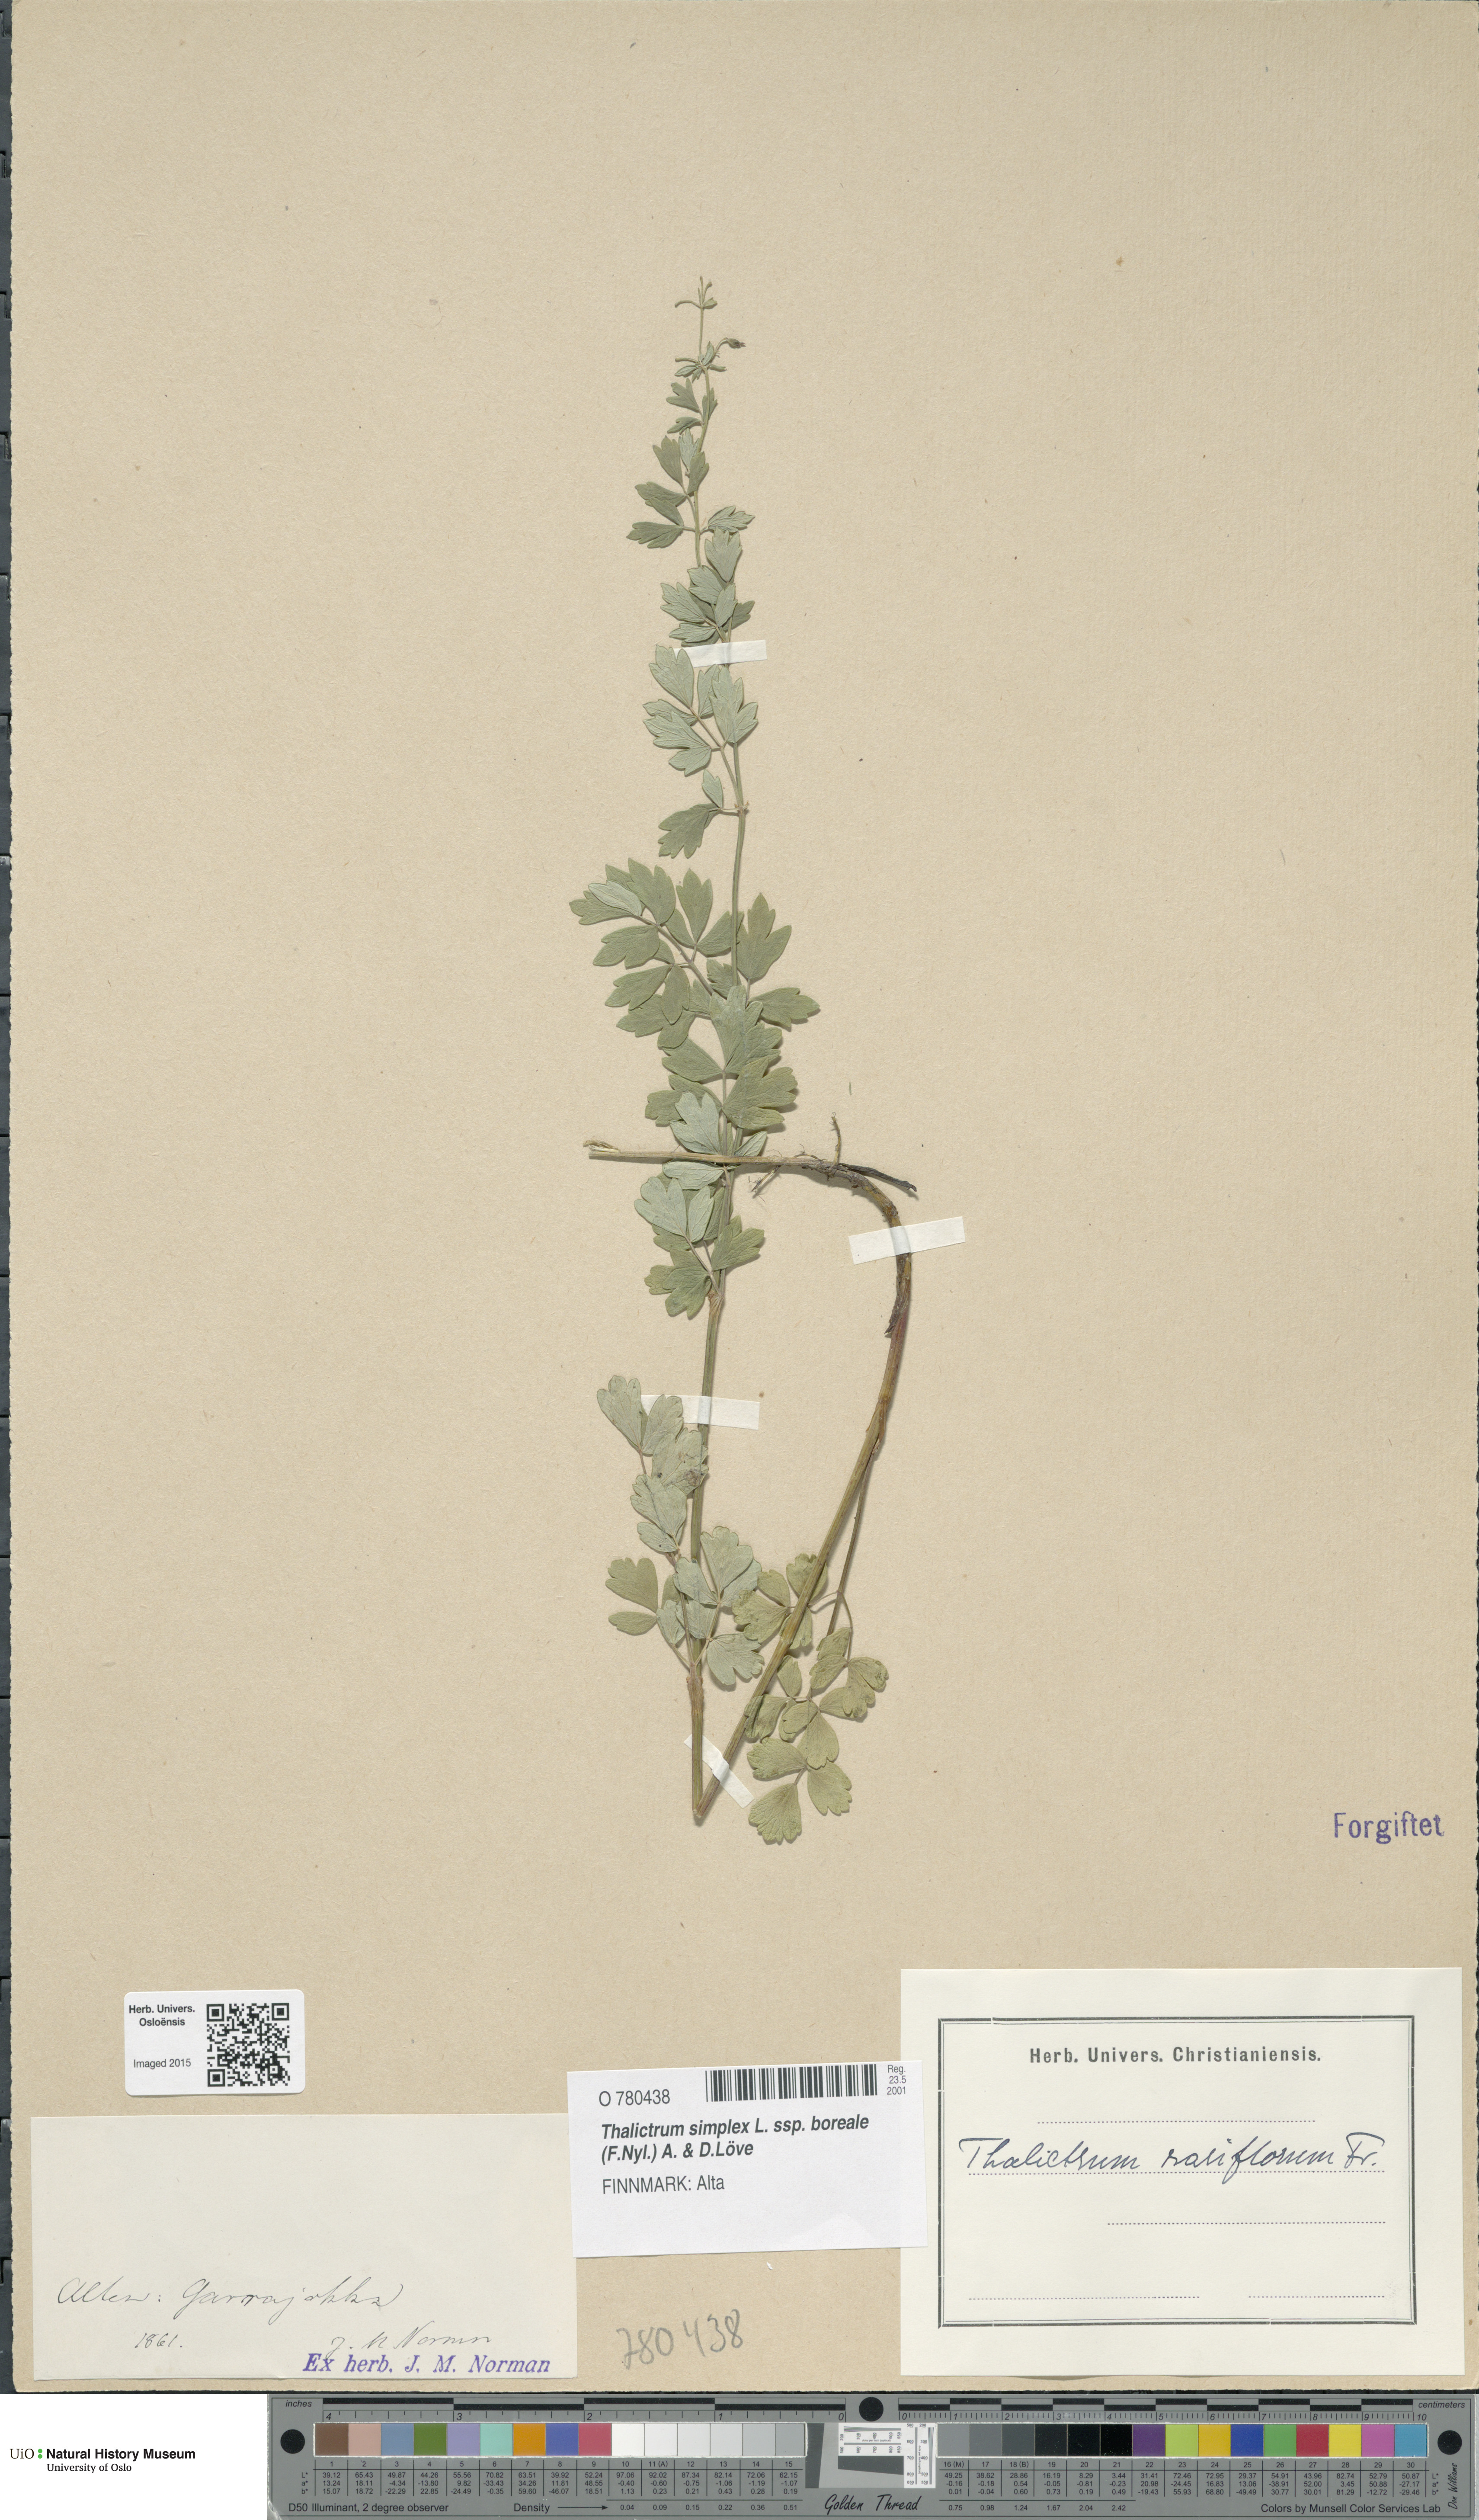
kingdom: Plantae
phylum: Tracheophyta
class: Magnoliopsida
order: Ranunculales
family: Ranunculaceae
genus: Thalictrum
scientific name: Thalictrum simplex
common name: Small meadow-rue
